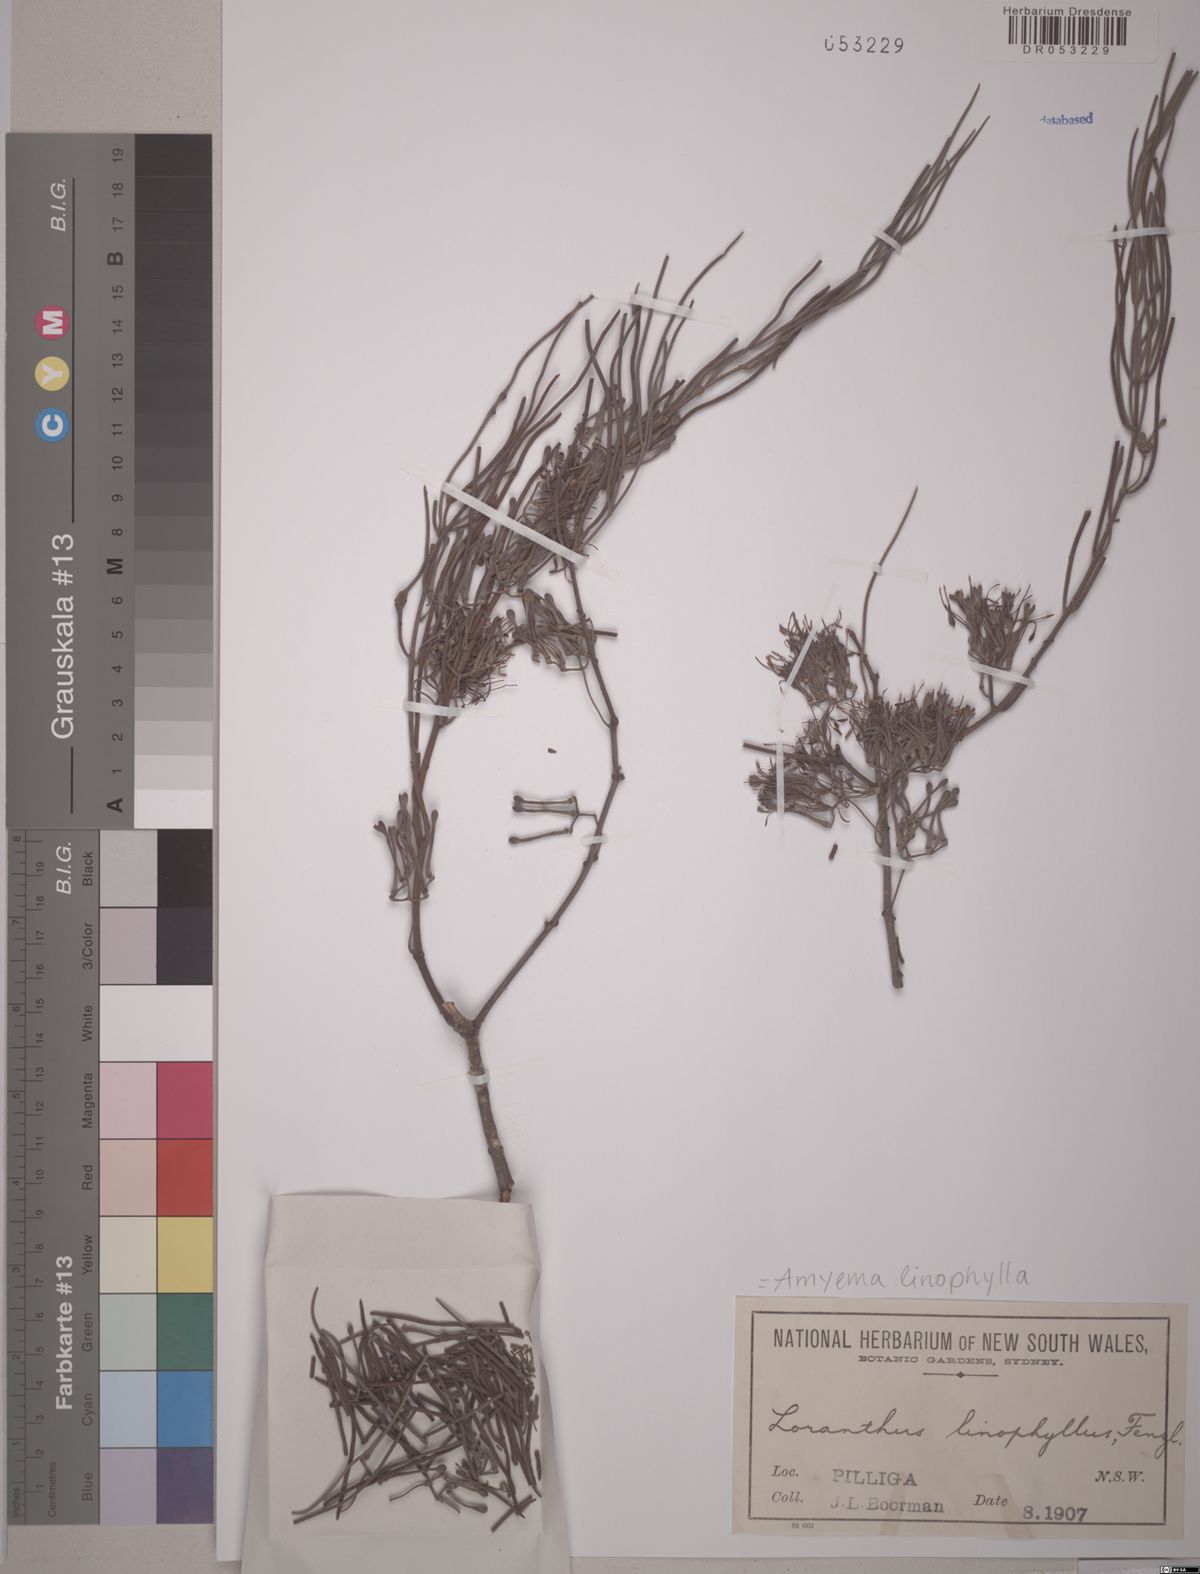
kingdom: Plantae
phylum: Tracheophyta
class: Magnoliopsida
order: Santalales
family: Loranthaceae
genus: Amyema
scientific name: Amyema linophylla
